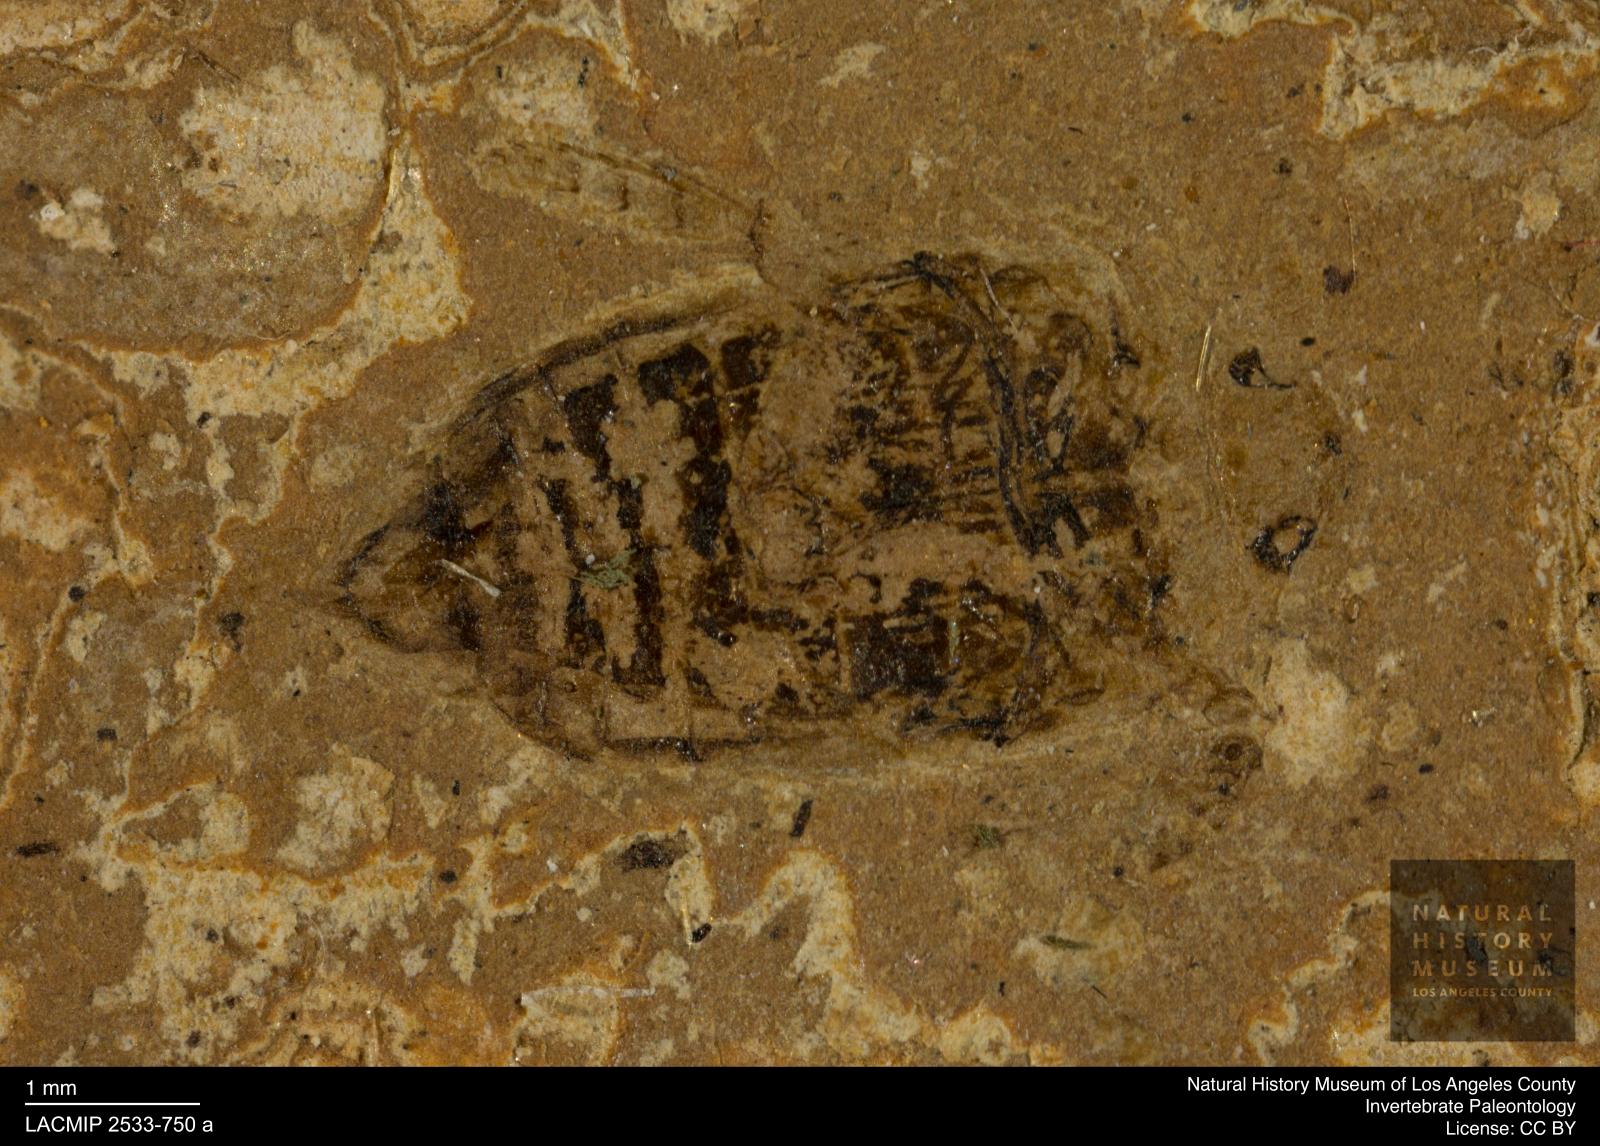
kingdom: Animalia
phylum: Arthropoda
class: Insecta
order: Coleoptera
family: Dytiscidae
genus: Laccophilus
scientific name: Laccophilus Palaeogyrinus strigatus
